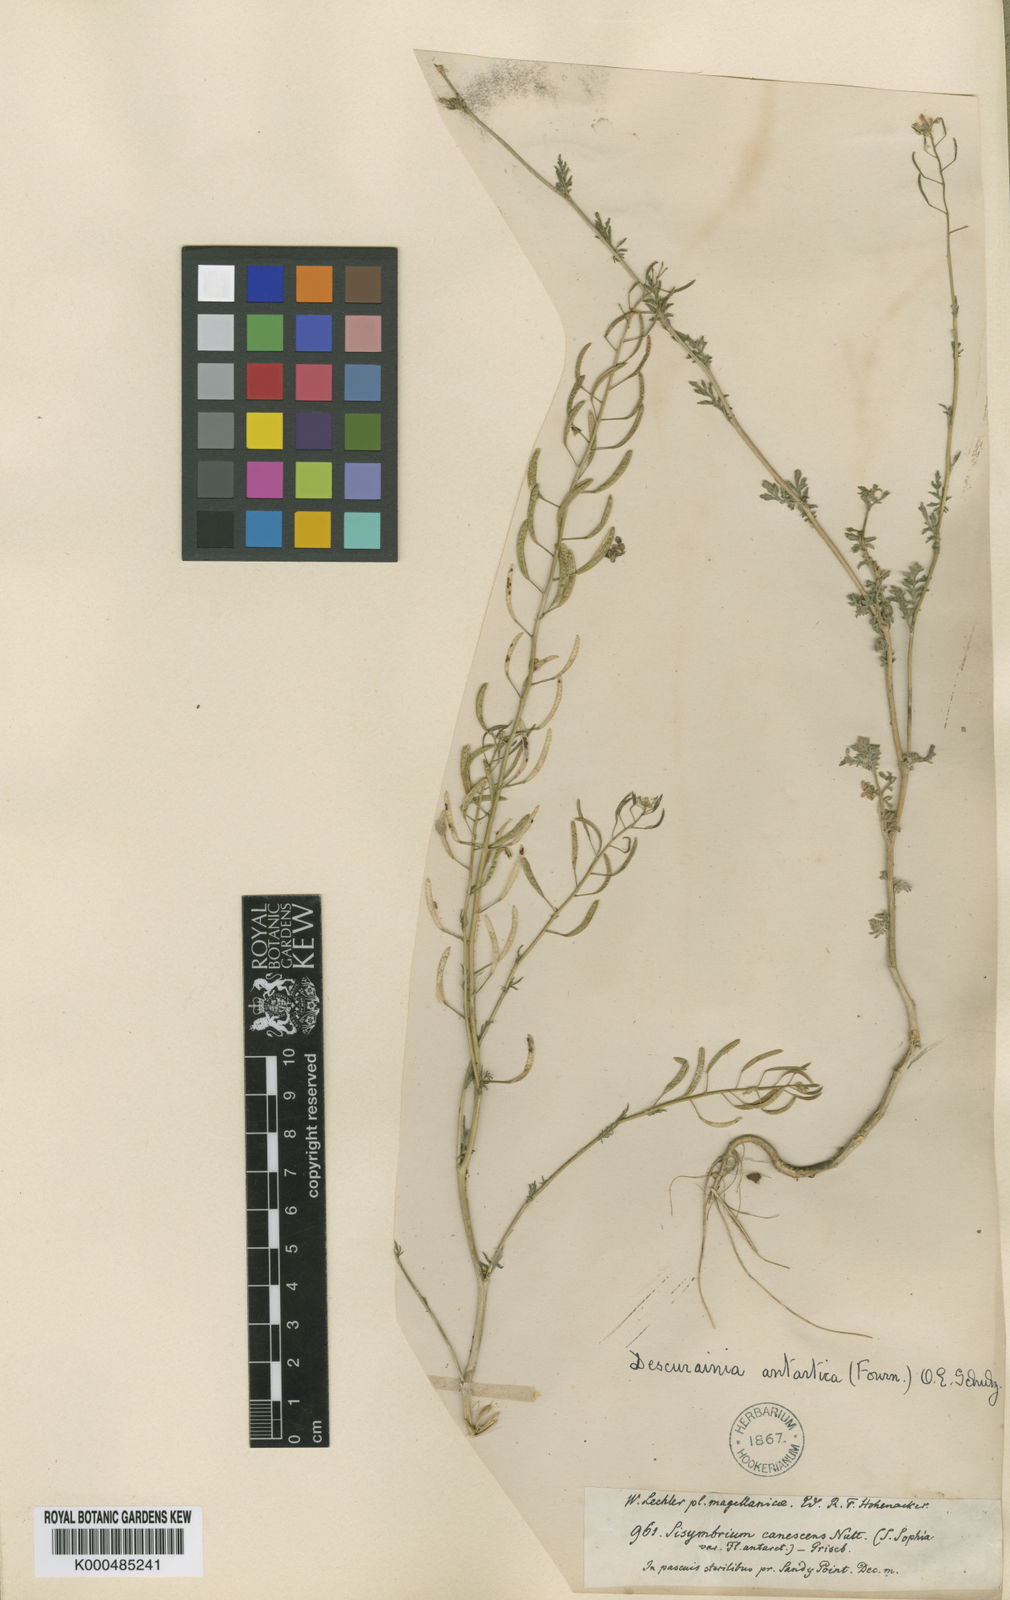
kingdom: Plantae
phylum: Tracheophyta
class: Magnoliopsida
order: Brassicales
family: Brassicaceae
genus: Descurainia
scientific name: Descurainia antarctica
